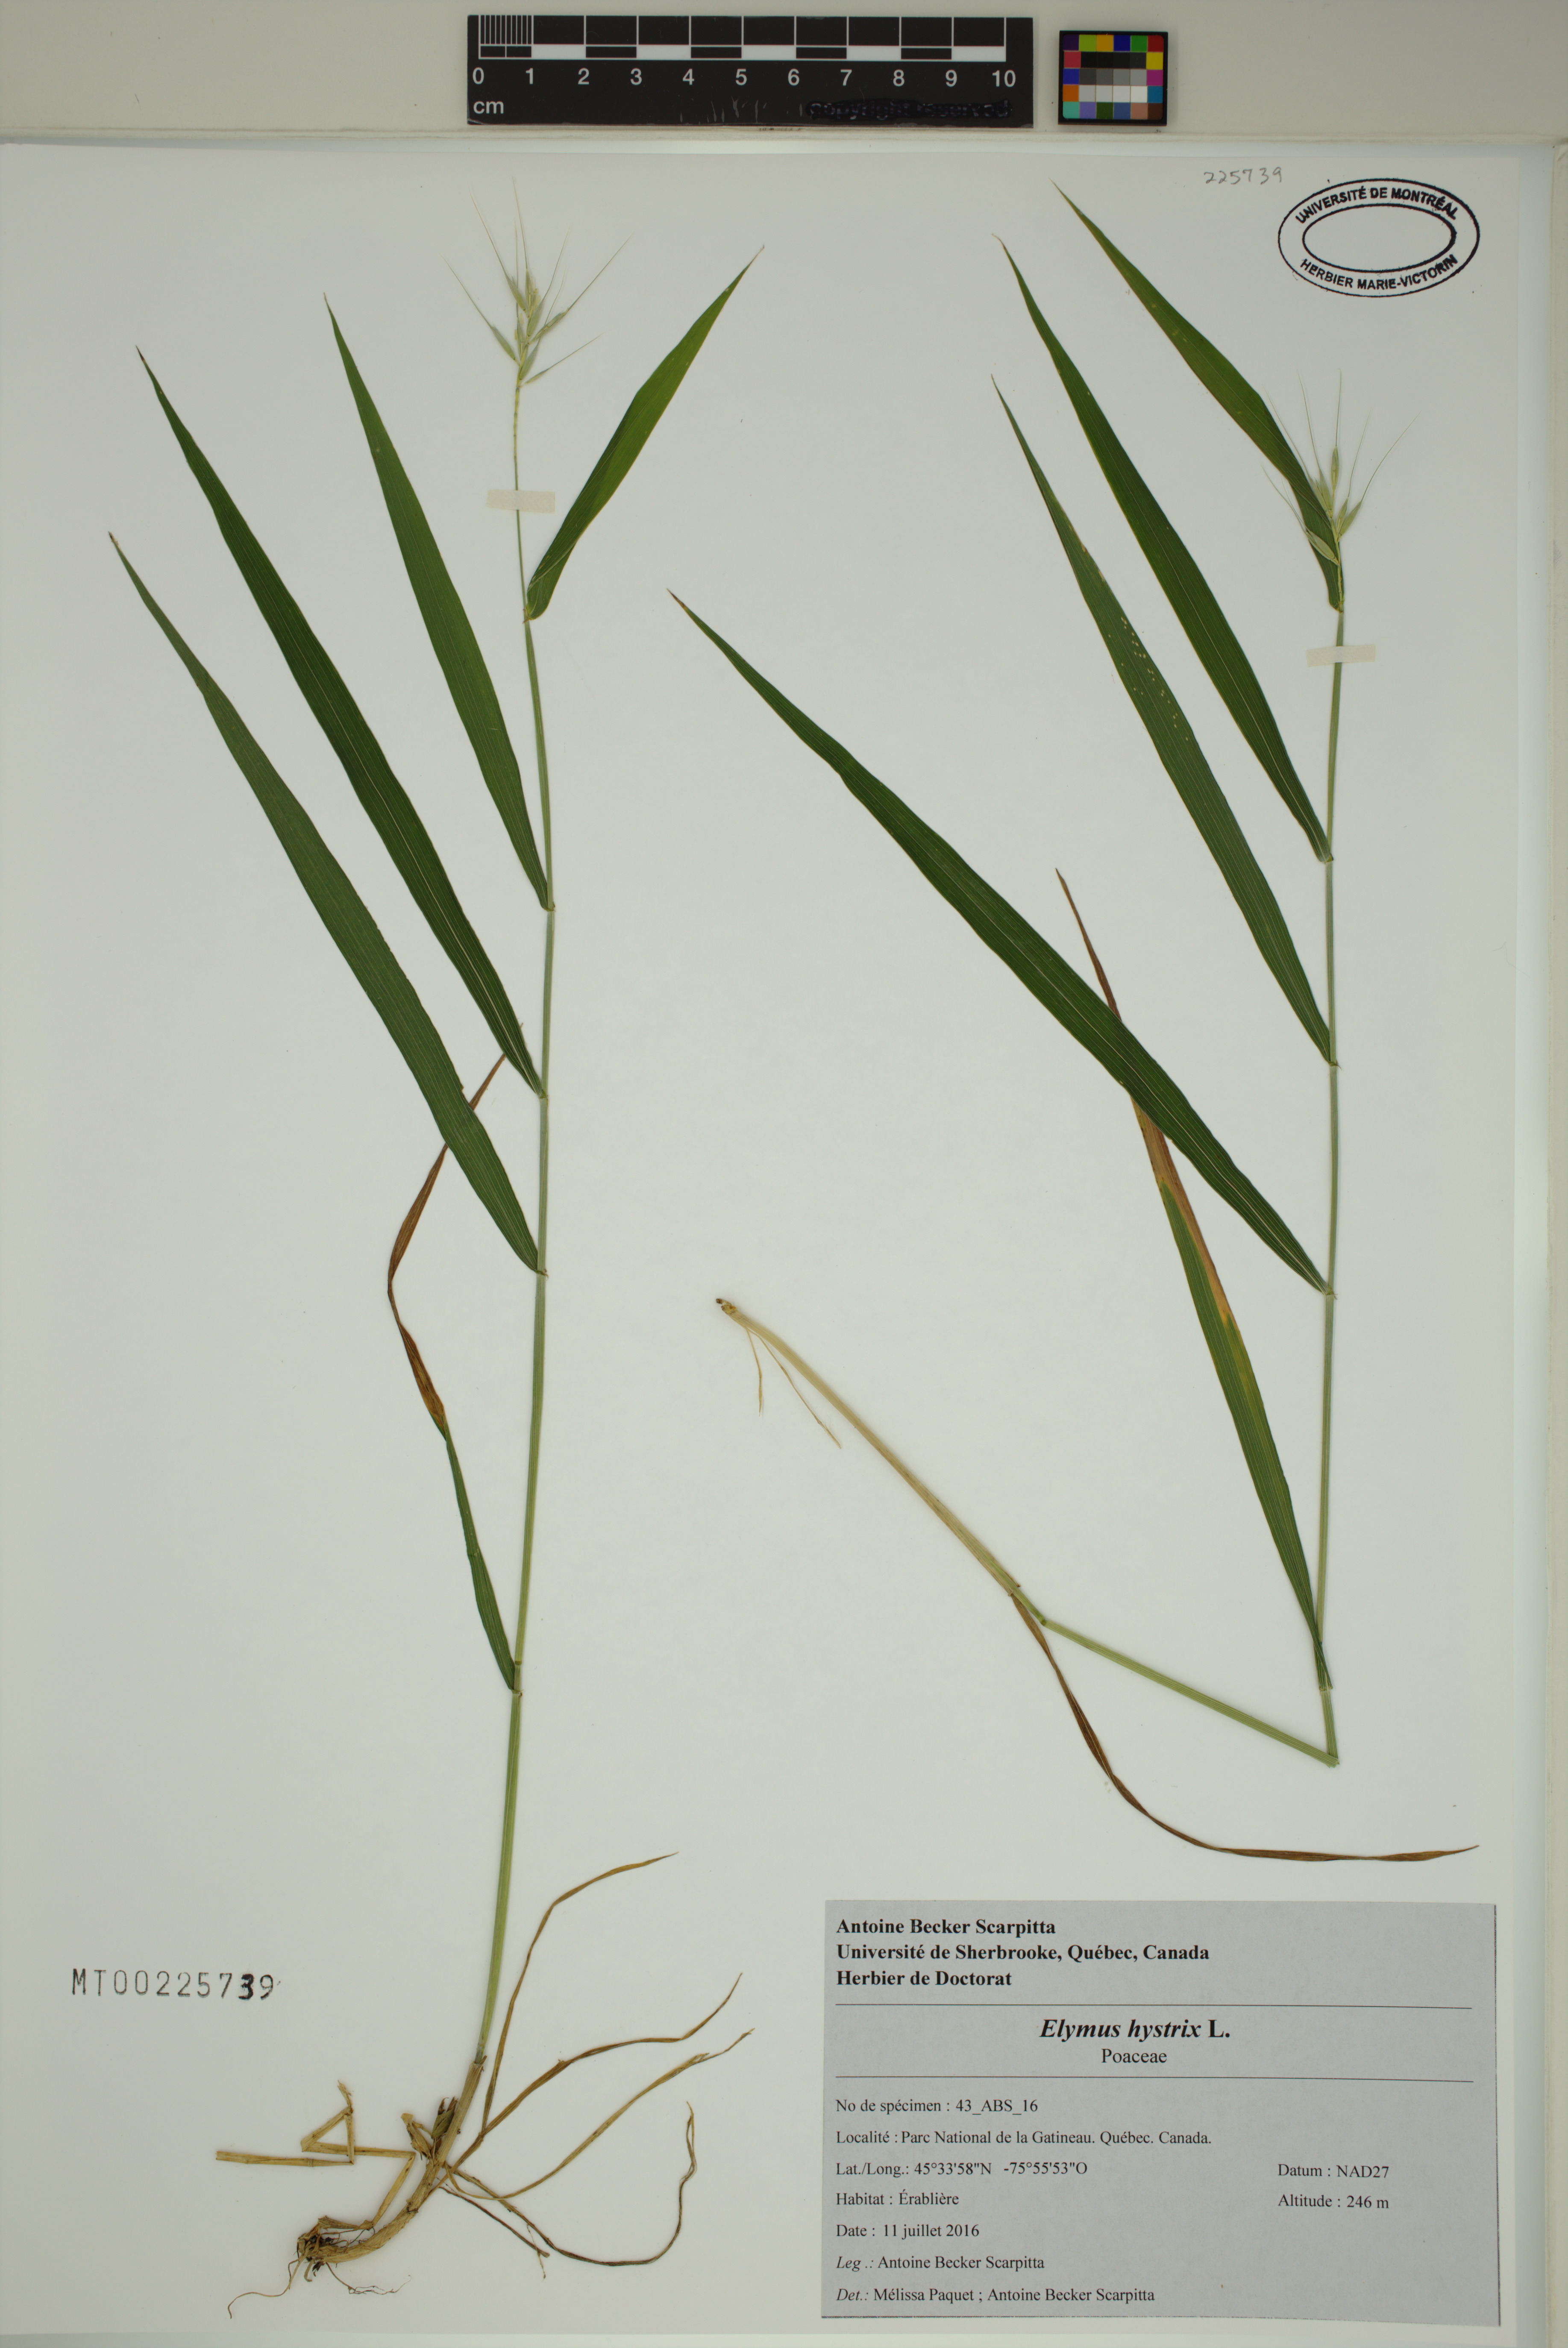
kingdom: Plantae
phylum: Tracheophyta
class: Liliopsida
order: Poales
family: Poaceae
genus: Elymus
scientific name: Elymus hystrix
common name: Bottlebrush grass
